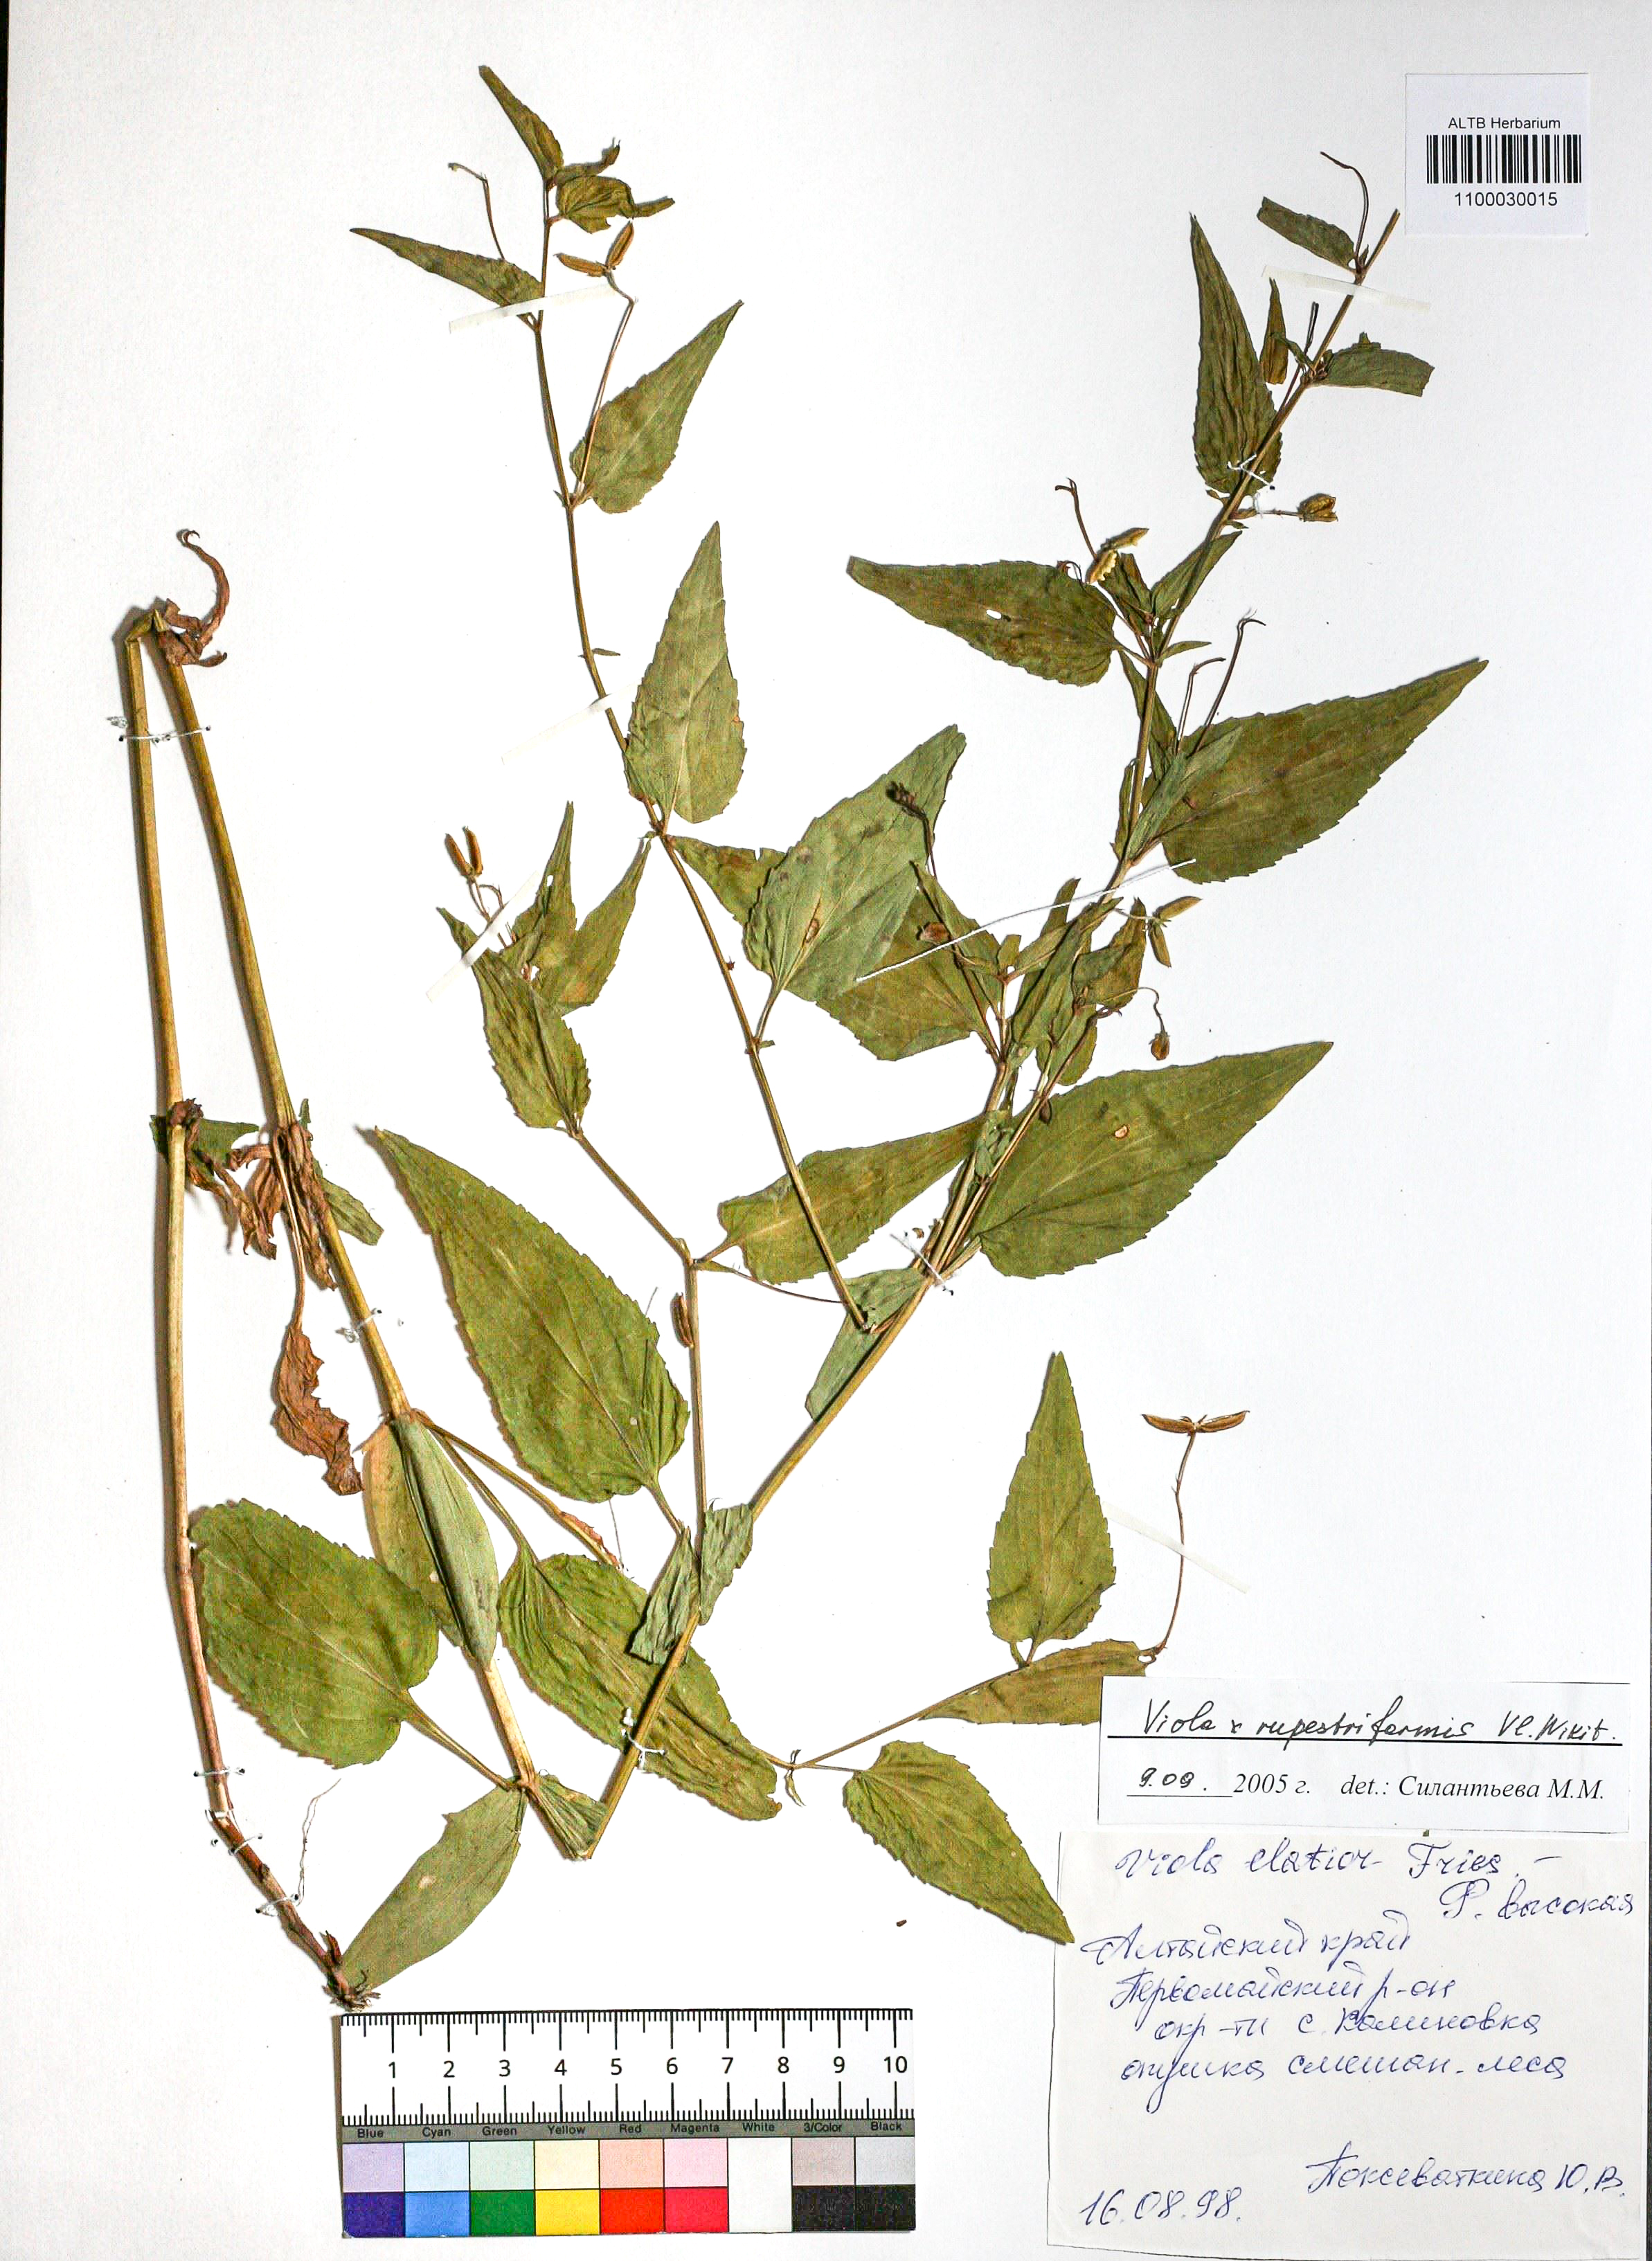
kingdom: Plantae
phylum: Tracheophyta
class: Magnoliopsida
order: Malpighiales
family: Violaceae
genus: Viola
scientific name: Viola rupestriformis
